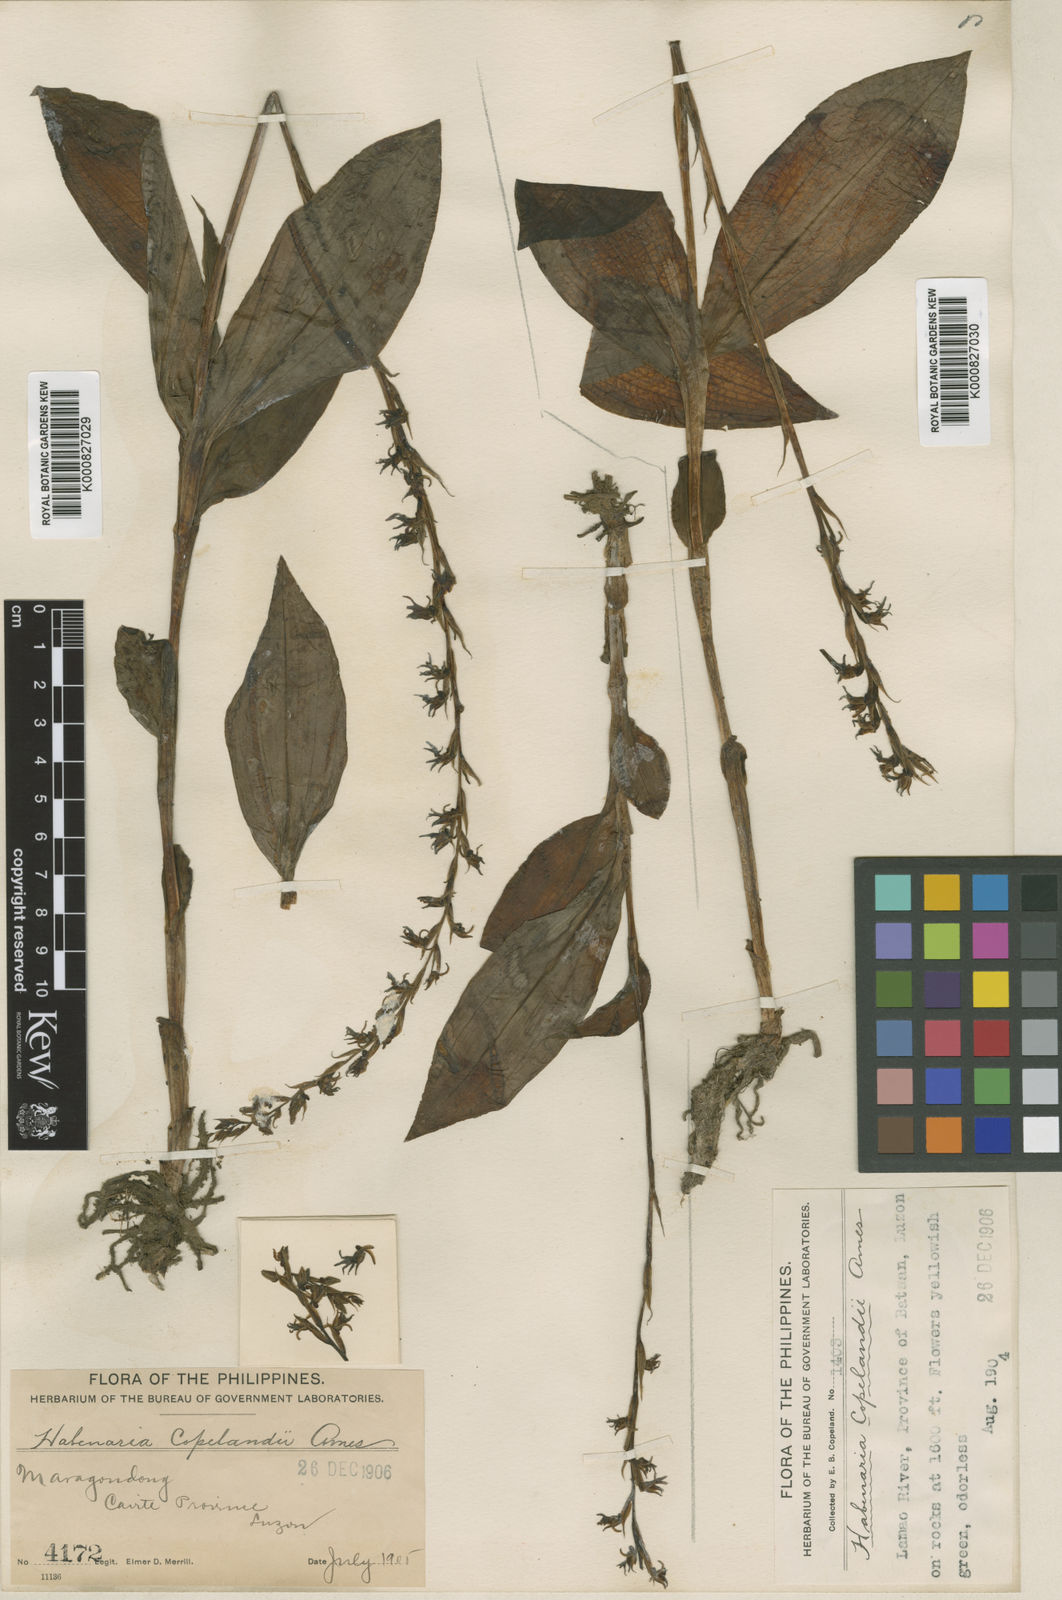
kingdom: Plantae
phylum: Tracheophyta
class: Liliopsida
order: Asparagales
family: Orchidaceae
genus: Peristylus
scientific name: Peristylus grandis
